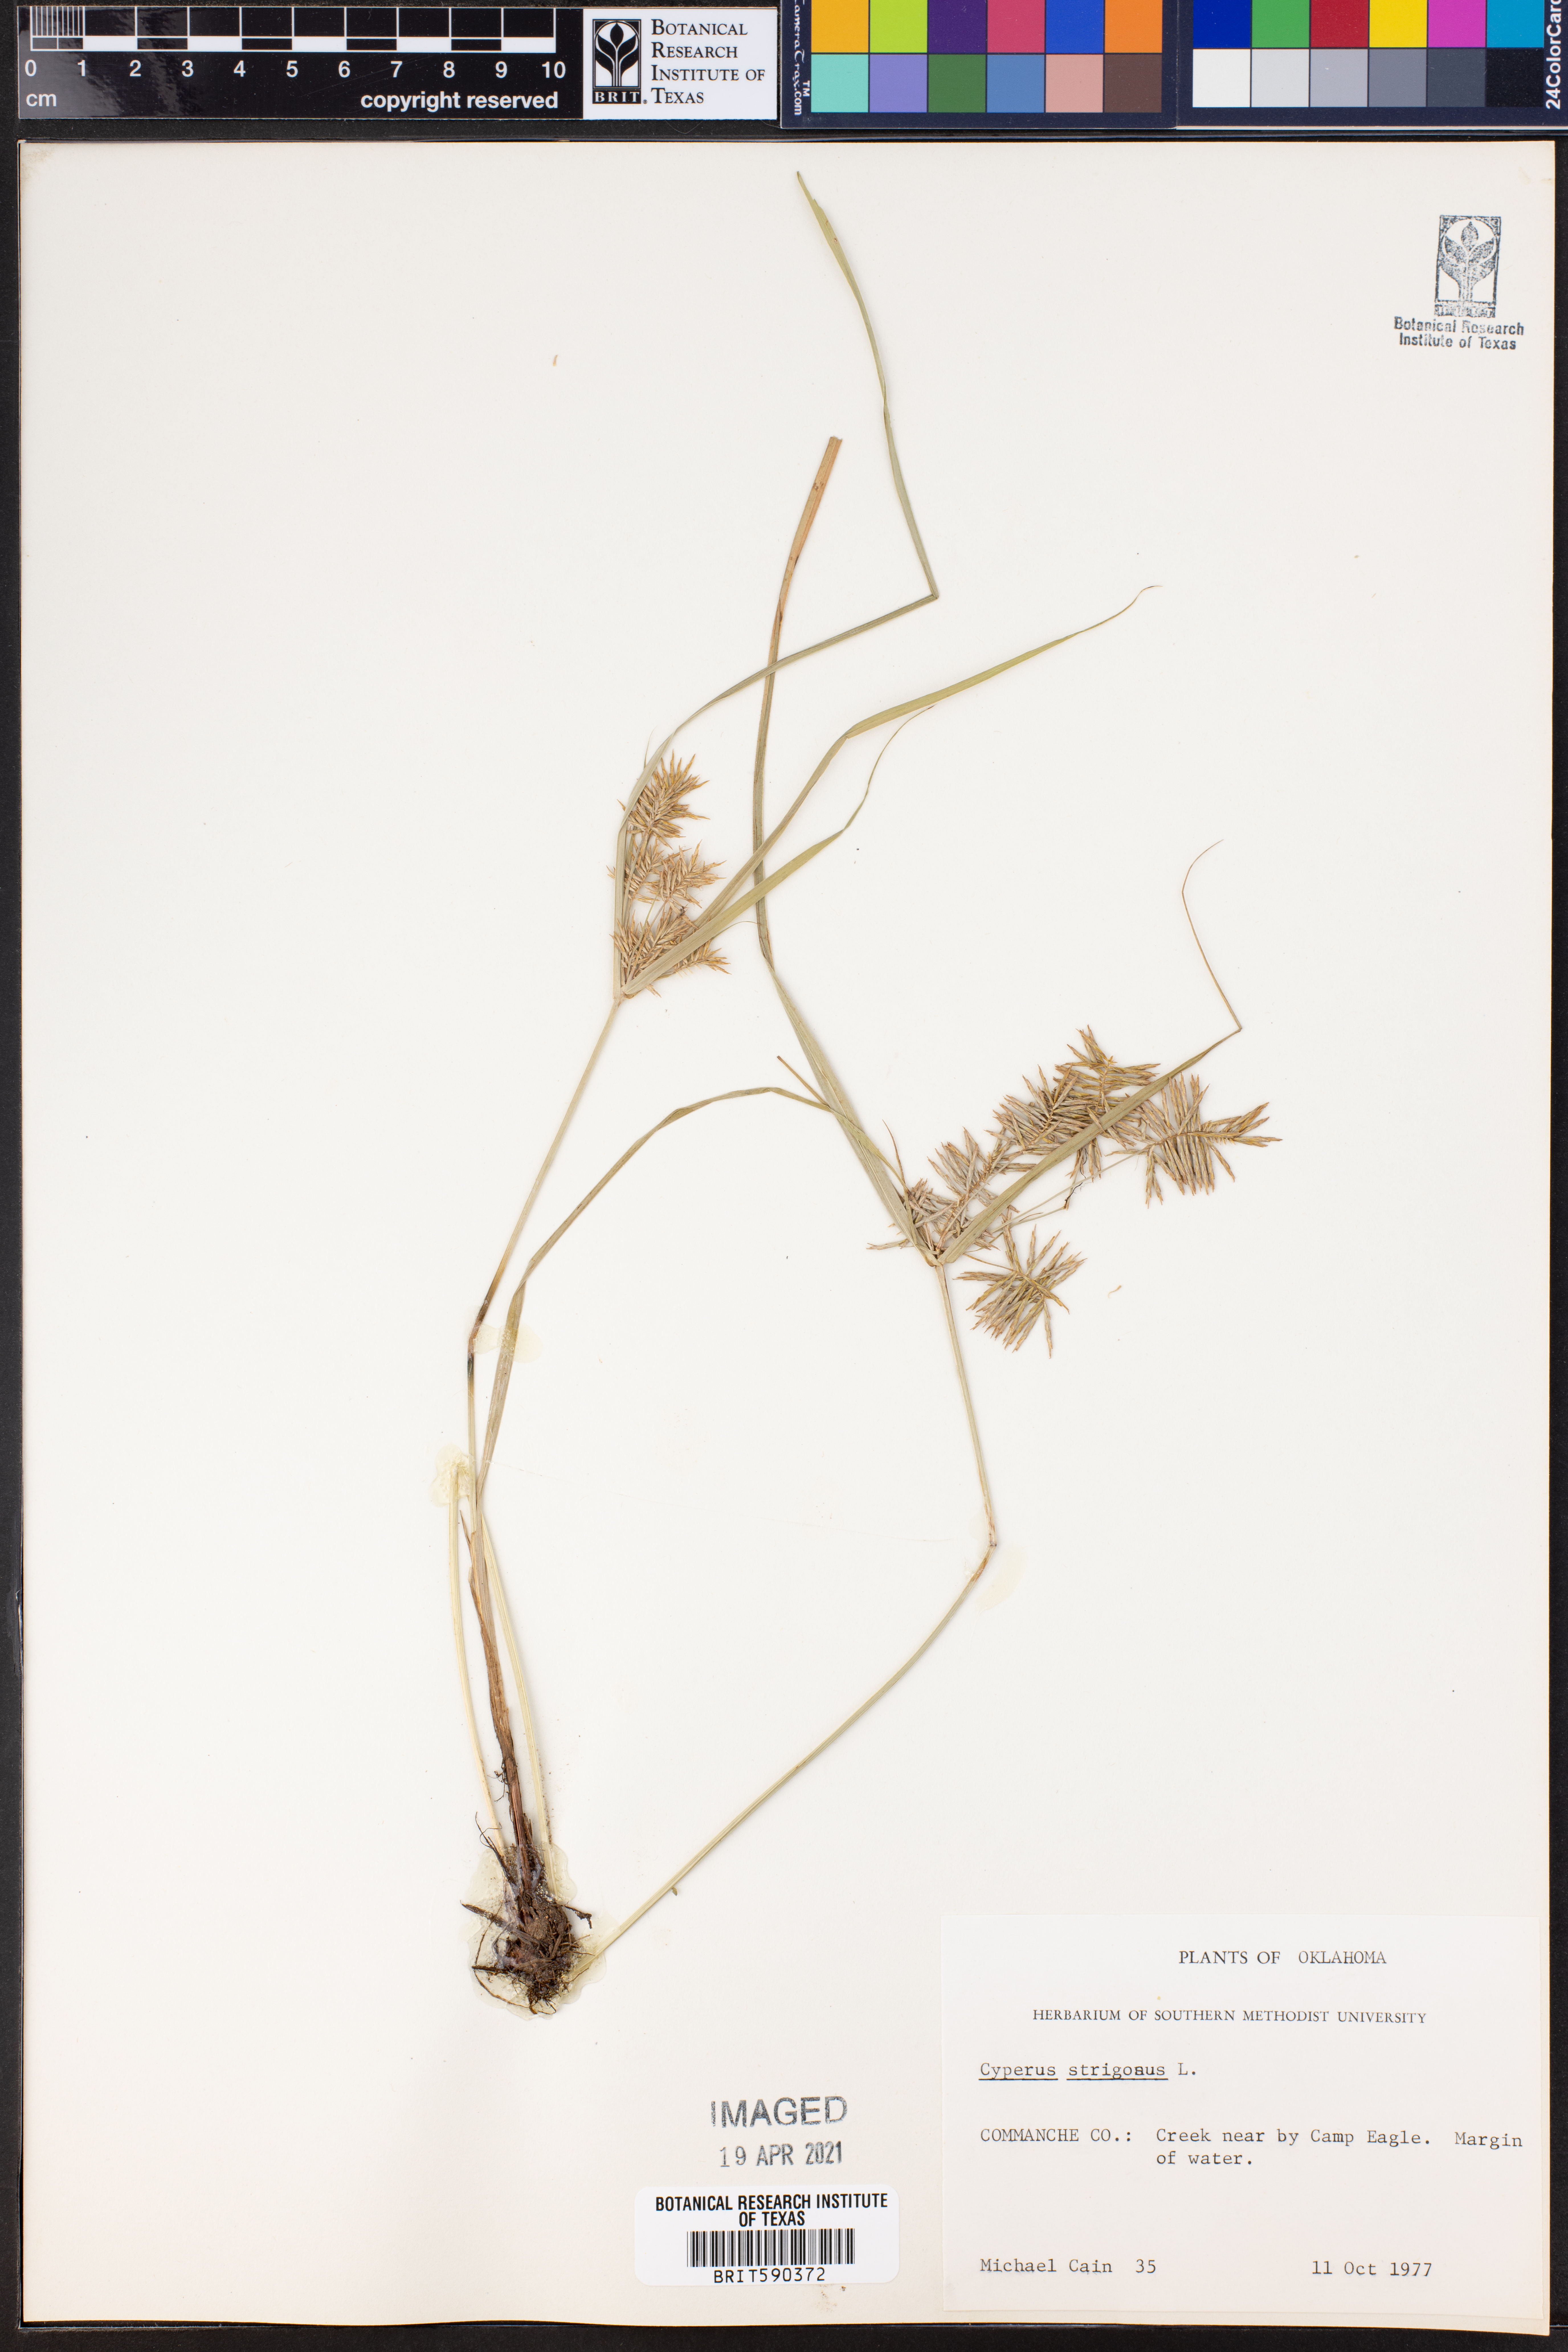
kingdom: Plantae
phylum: Tracheophyta
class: Liliopsida
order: Poales
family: Cyperaceae
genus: Cyperus
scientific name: Cyperus strigosus
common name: False nutsedge
